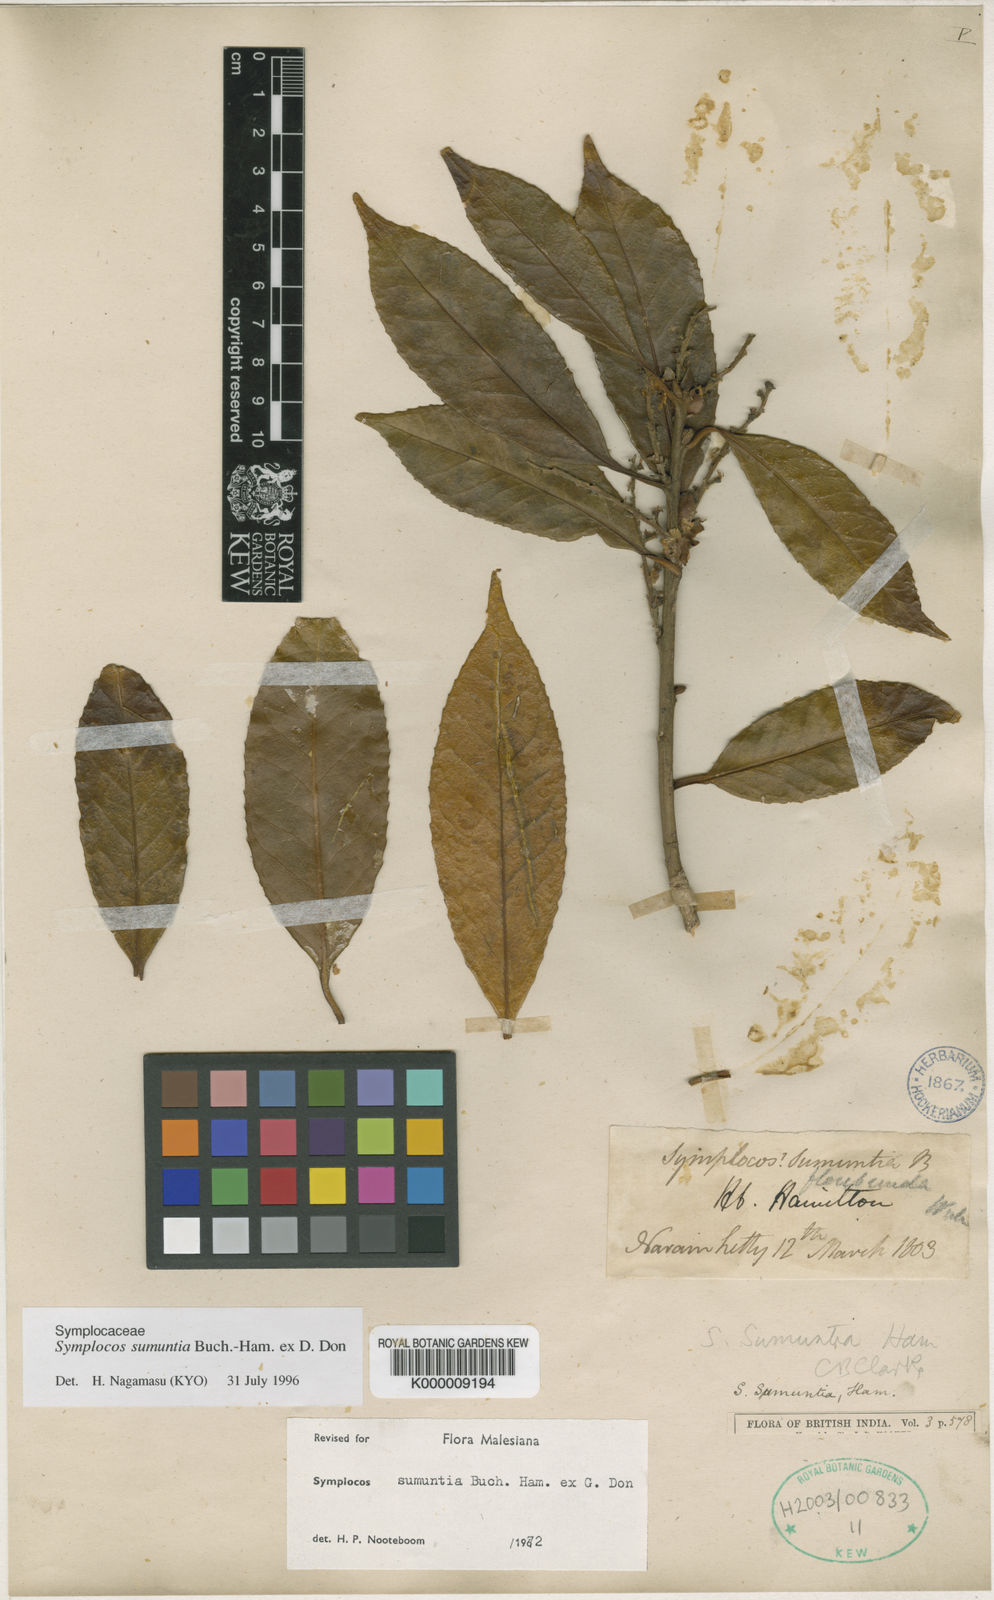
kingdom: Plantae
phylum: Tracheophyta
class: Magnoliopsida
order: Ericales
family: Symplocaceae
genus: Symplocos
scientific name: Symplocos sumuntia
